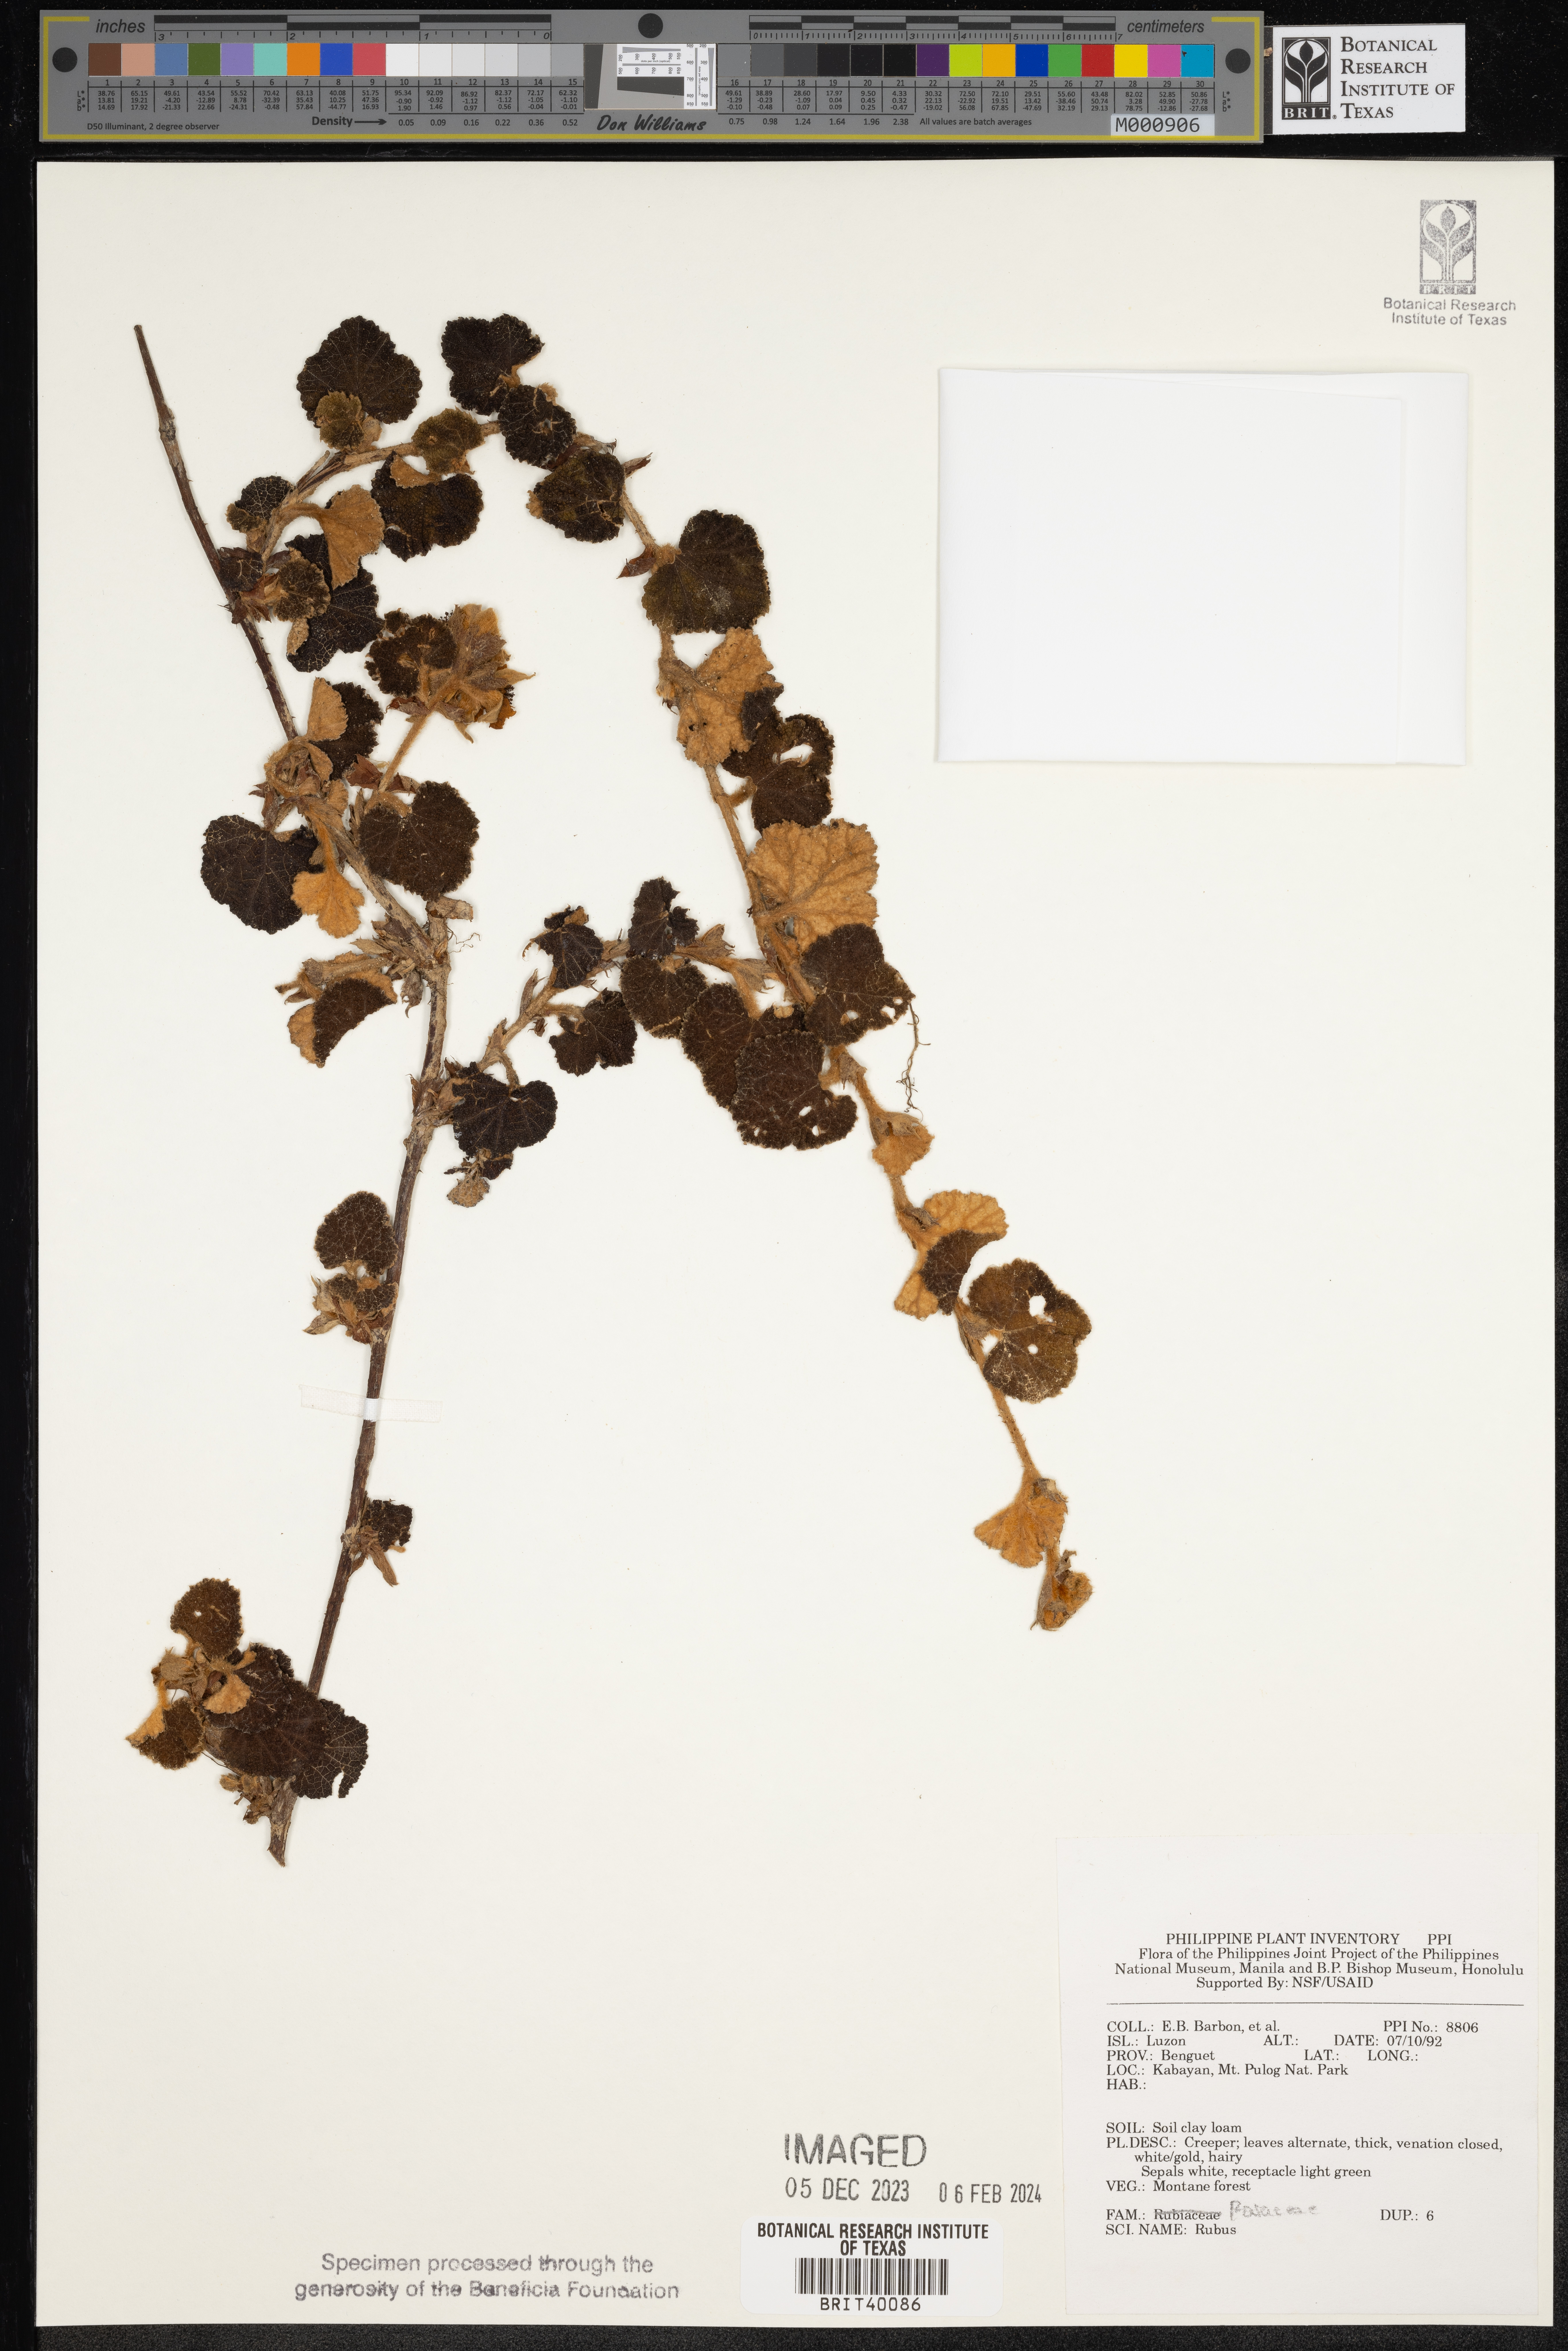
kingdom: Plantae
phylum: Tracheophyta
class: Magnoliopsida
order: Rosales
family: Rosaceae
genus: Rubus
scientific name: Rubus
